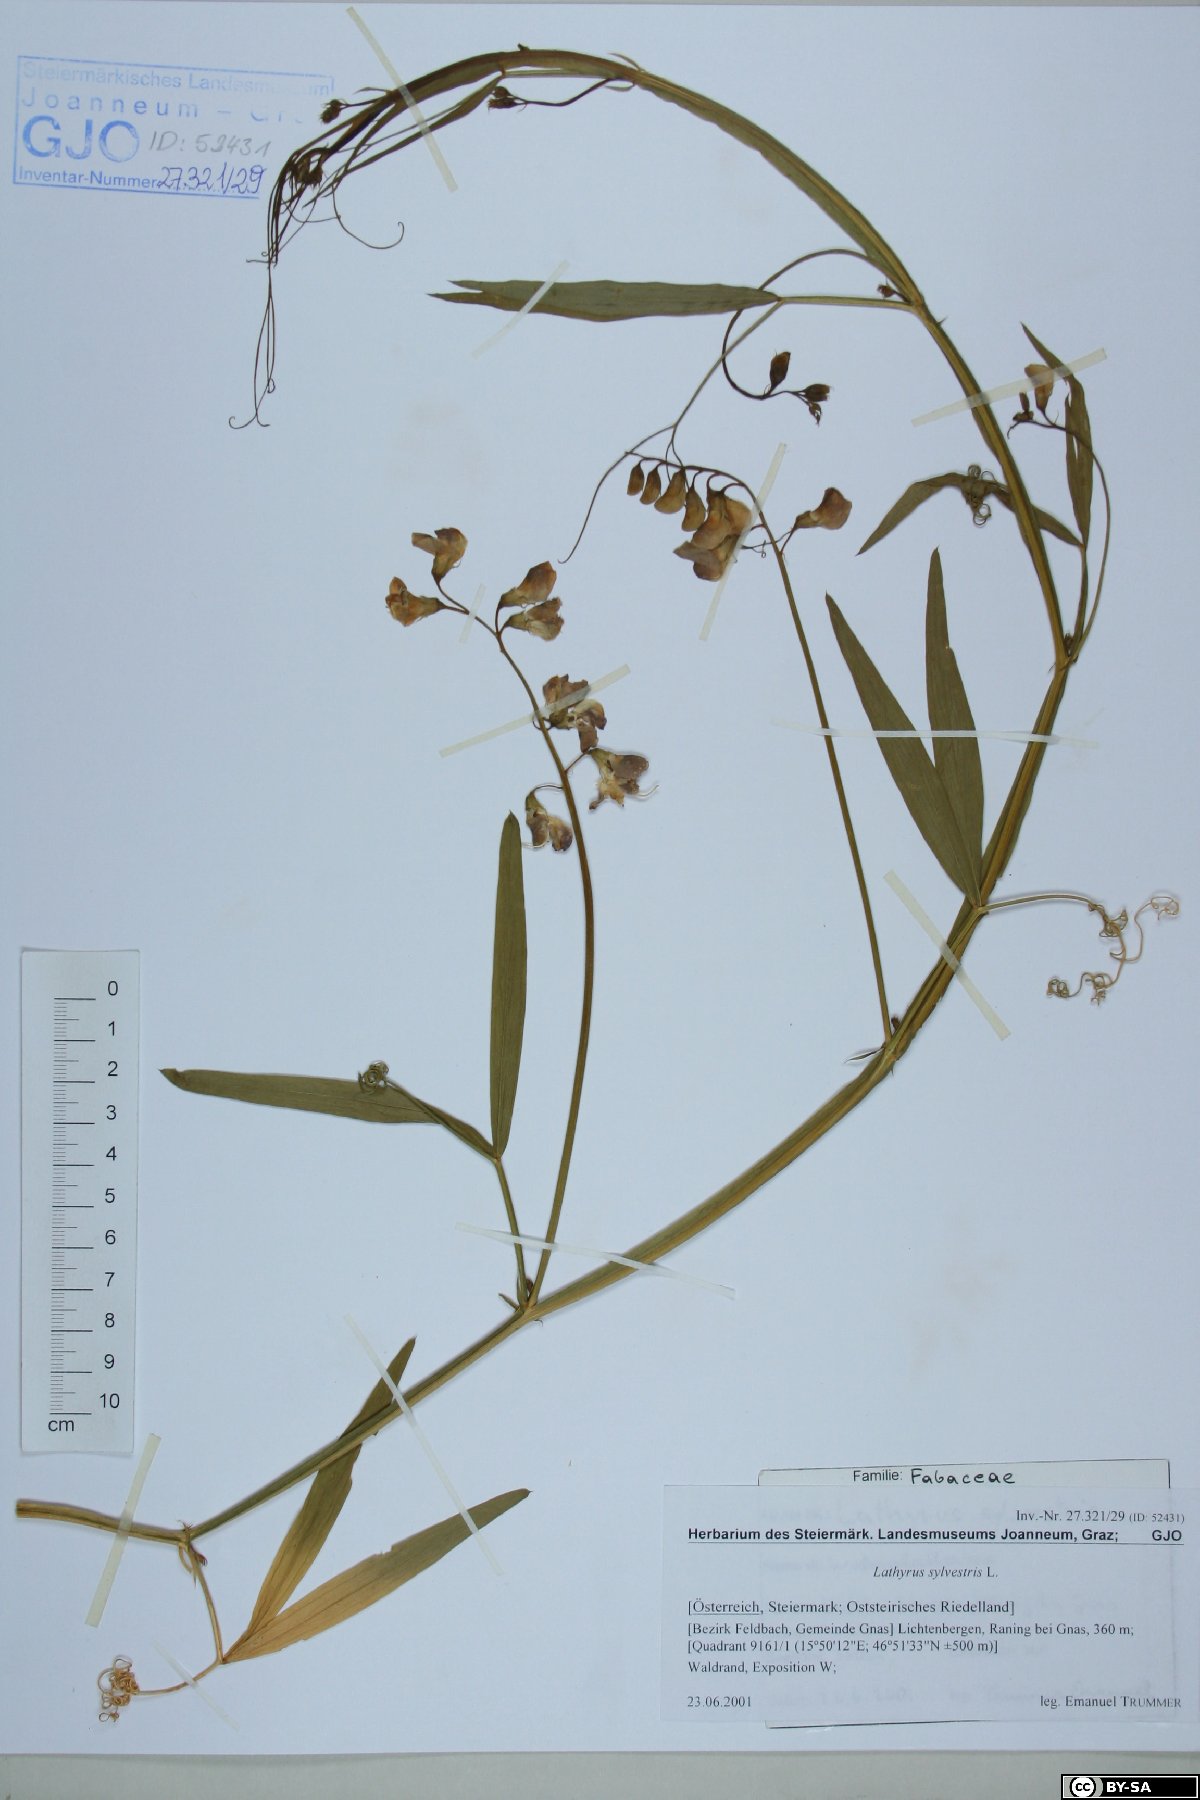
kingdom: Fungi
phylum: Basidiomycota
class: Agaricomycetes
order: Russulales
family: Bondarzewiaceae
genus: Heterobasidion
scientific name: Heterobasidion parviporum
